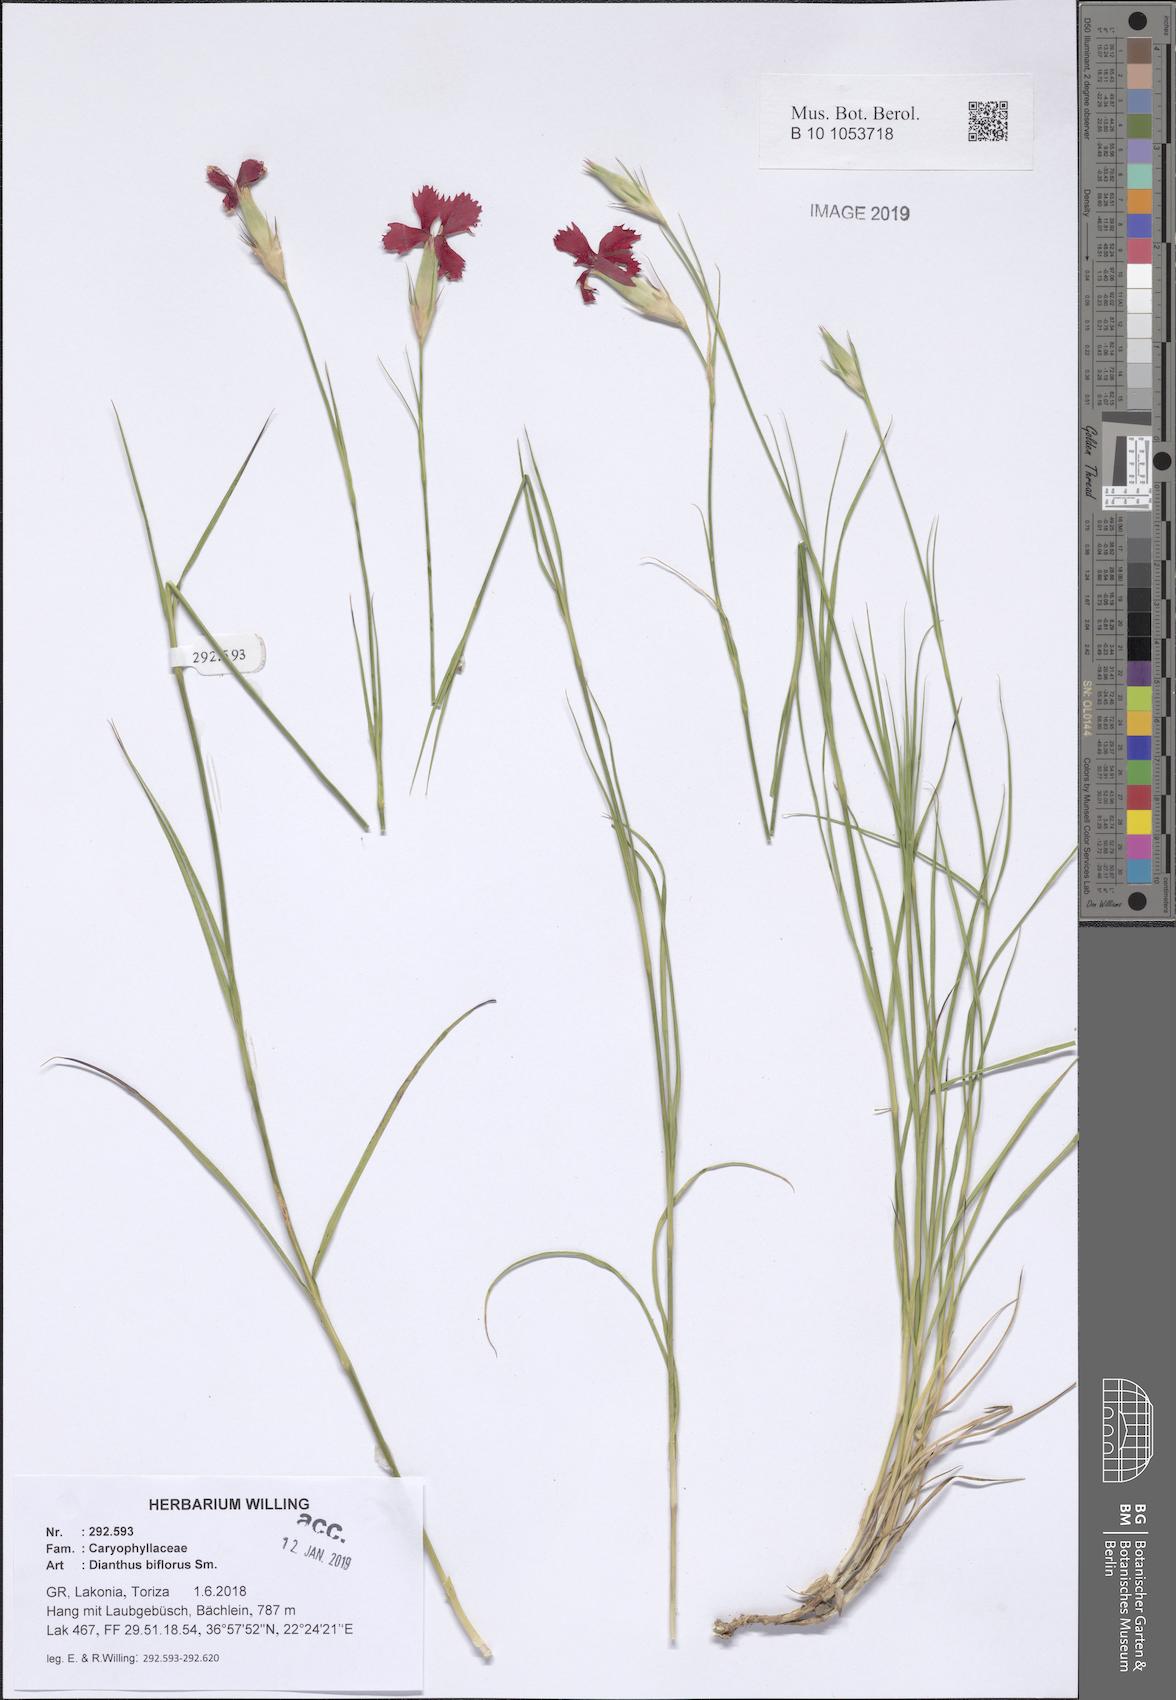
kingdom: Plantae
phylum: Tracheophyta
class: Magnoliopsida
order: Caryophyllales
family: Caryophyllaceae
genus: Dianthus
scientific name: Dianthus biflorus
